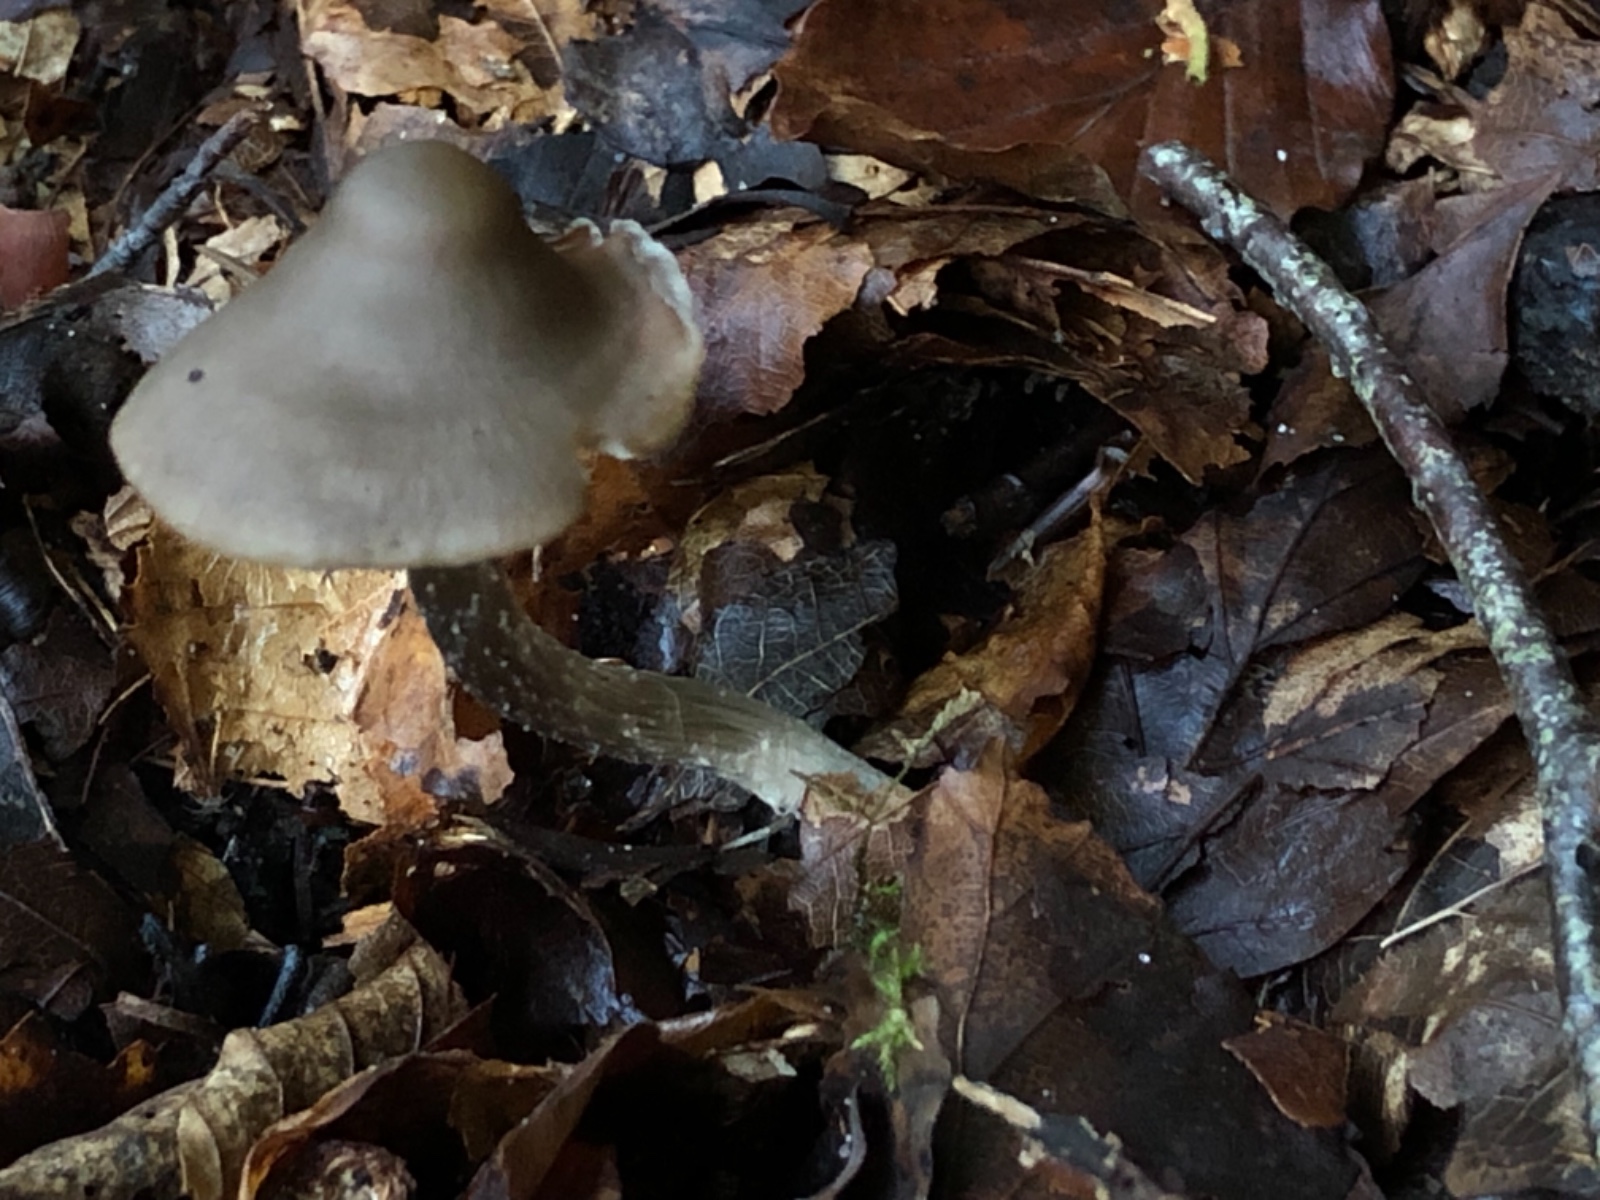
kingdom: Fungi
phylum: Basidiomycota
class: Agaricomycetes
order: Agaricales
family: Lyophyllaceae
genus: Myochromella
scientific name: Myochromella boudieri
